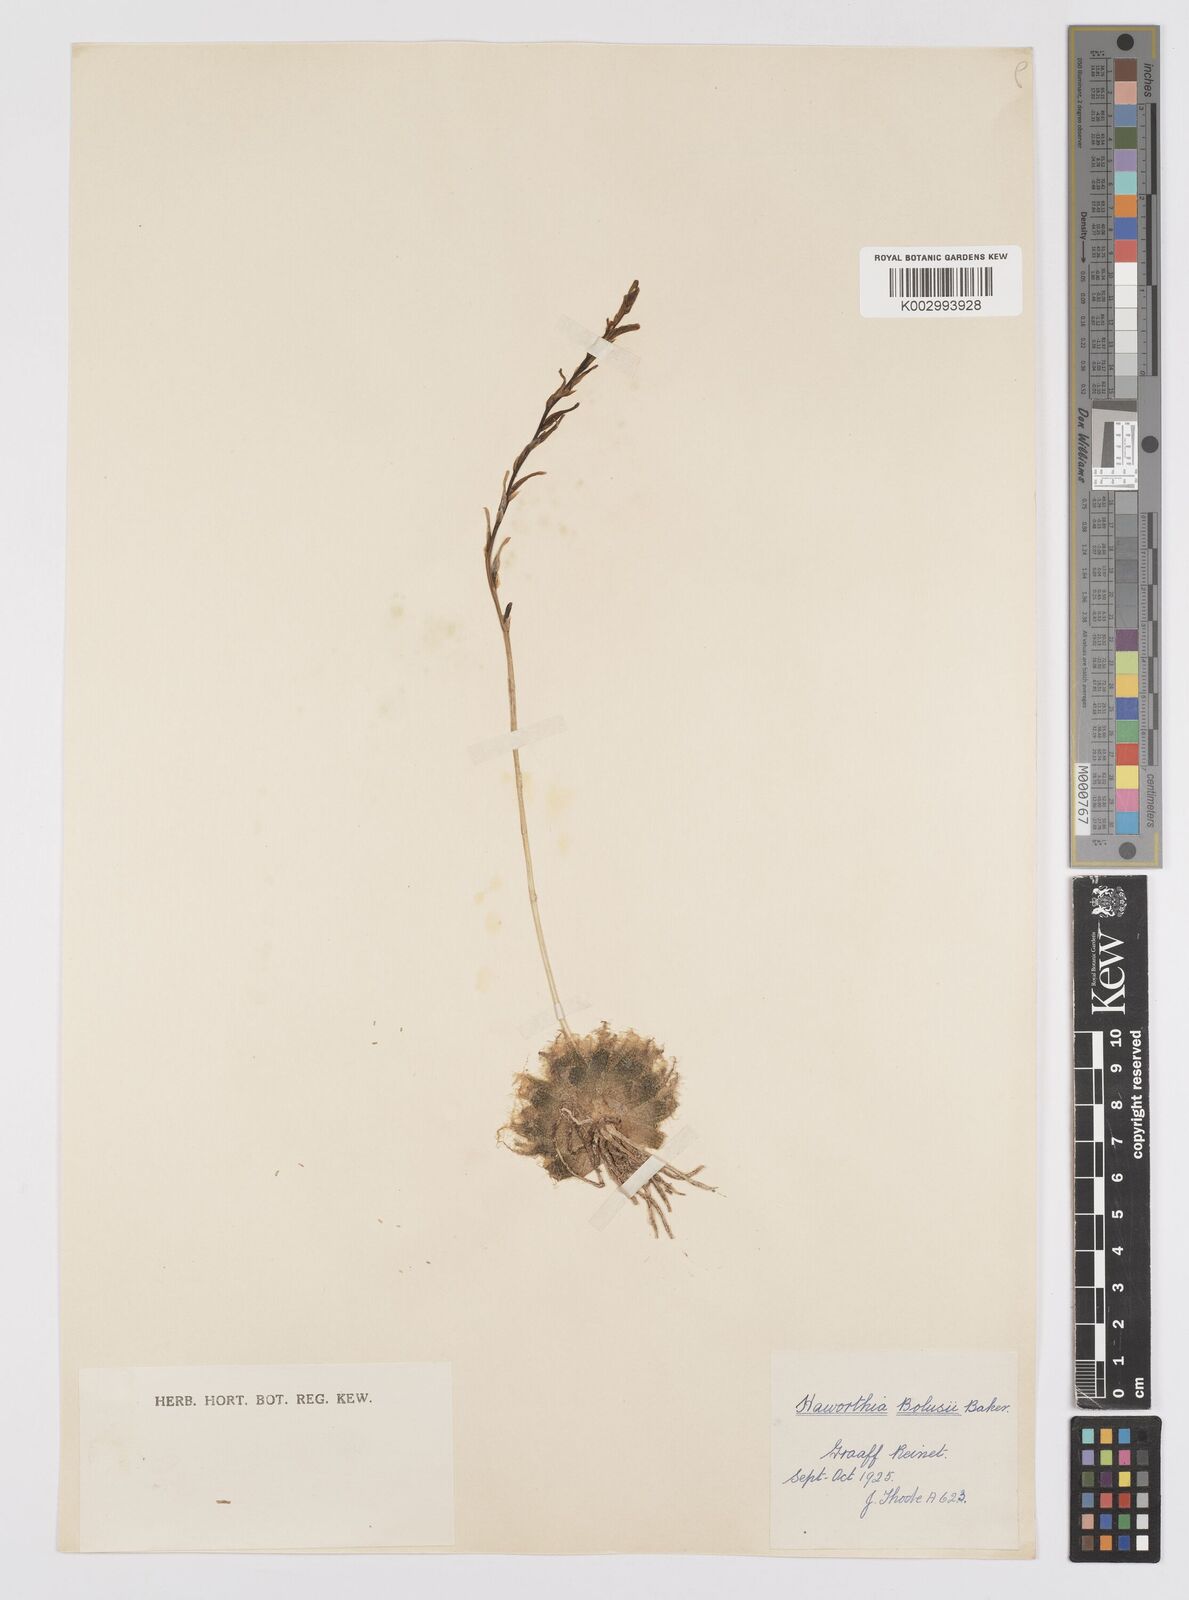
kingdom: Plantae
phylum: Tracheophyta
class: Liliopsida
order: Asparagales
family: Asphodelaceae
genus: Haworthia
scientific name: Haworthia bolusii
